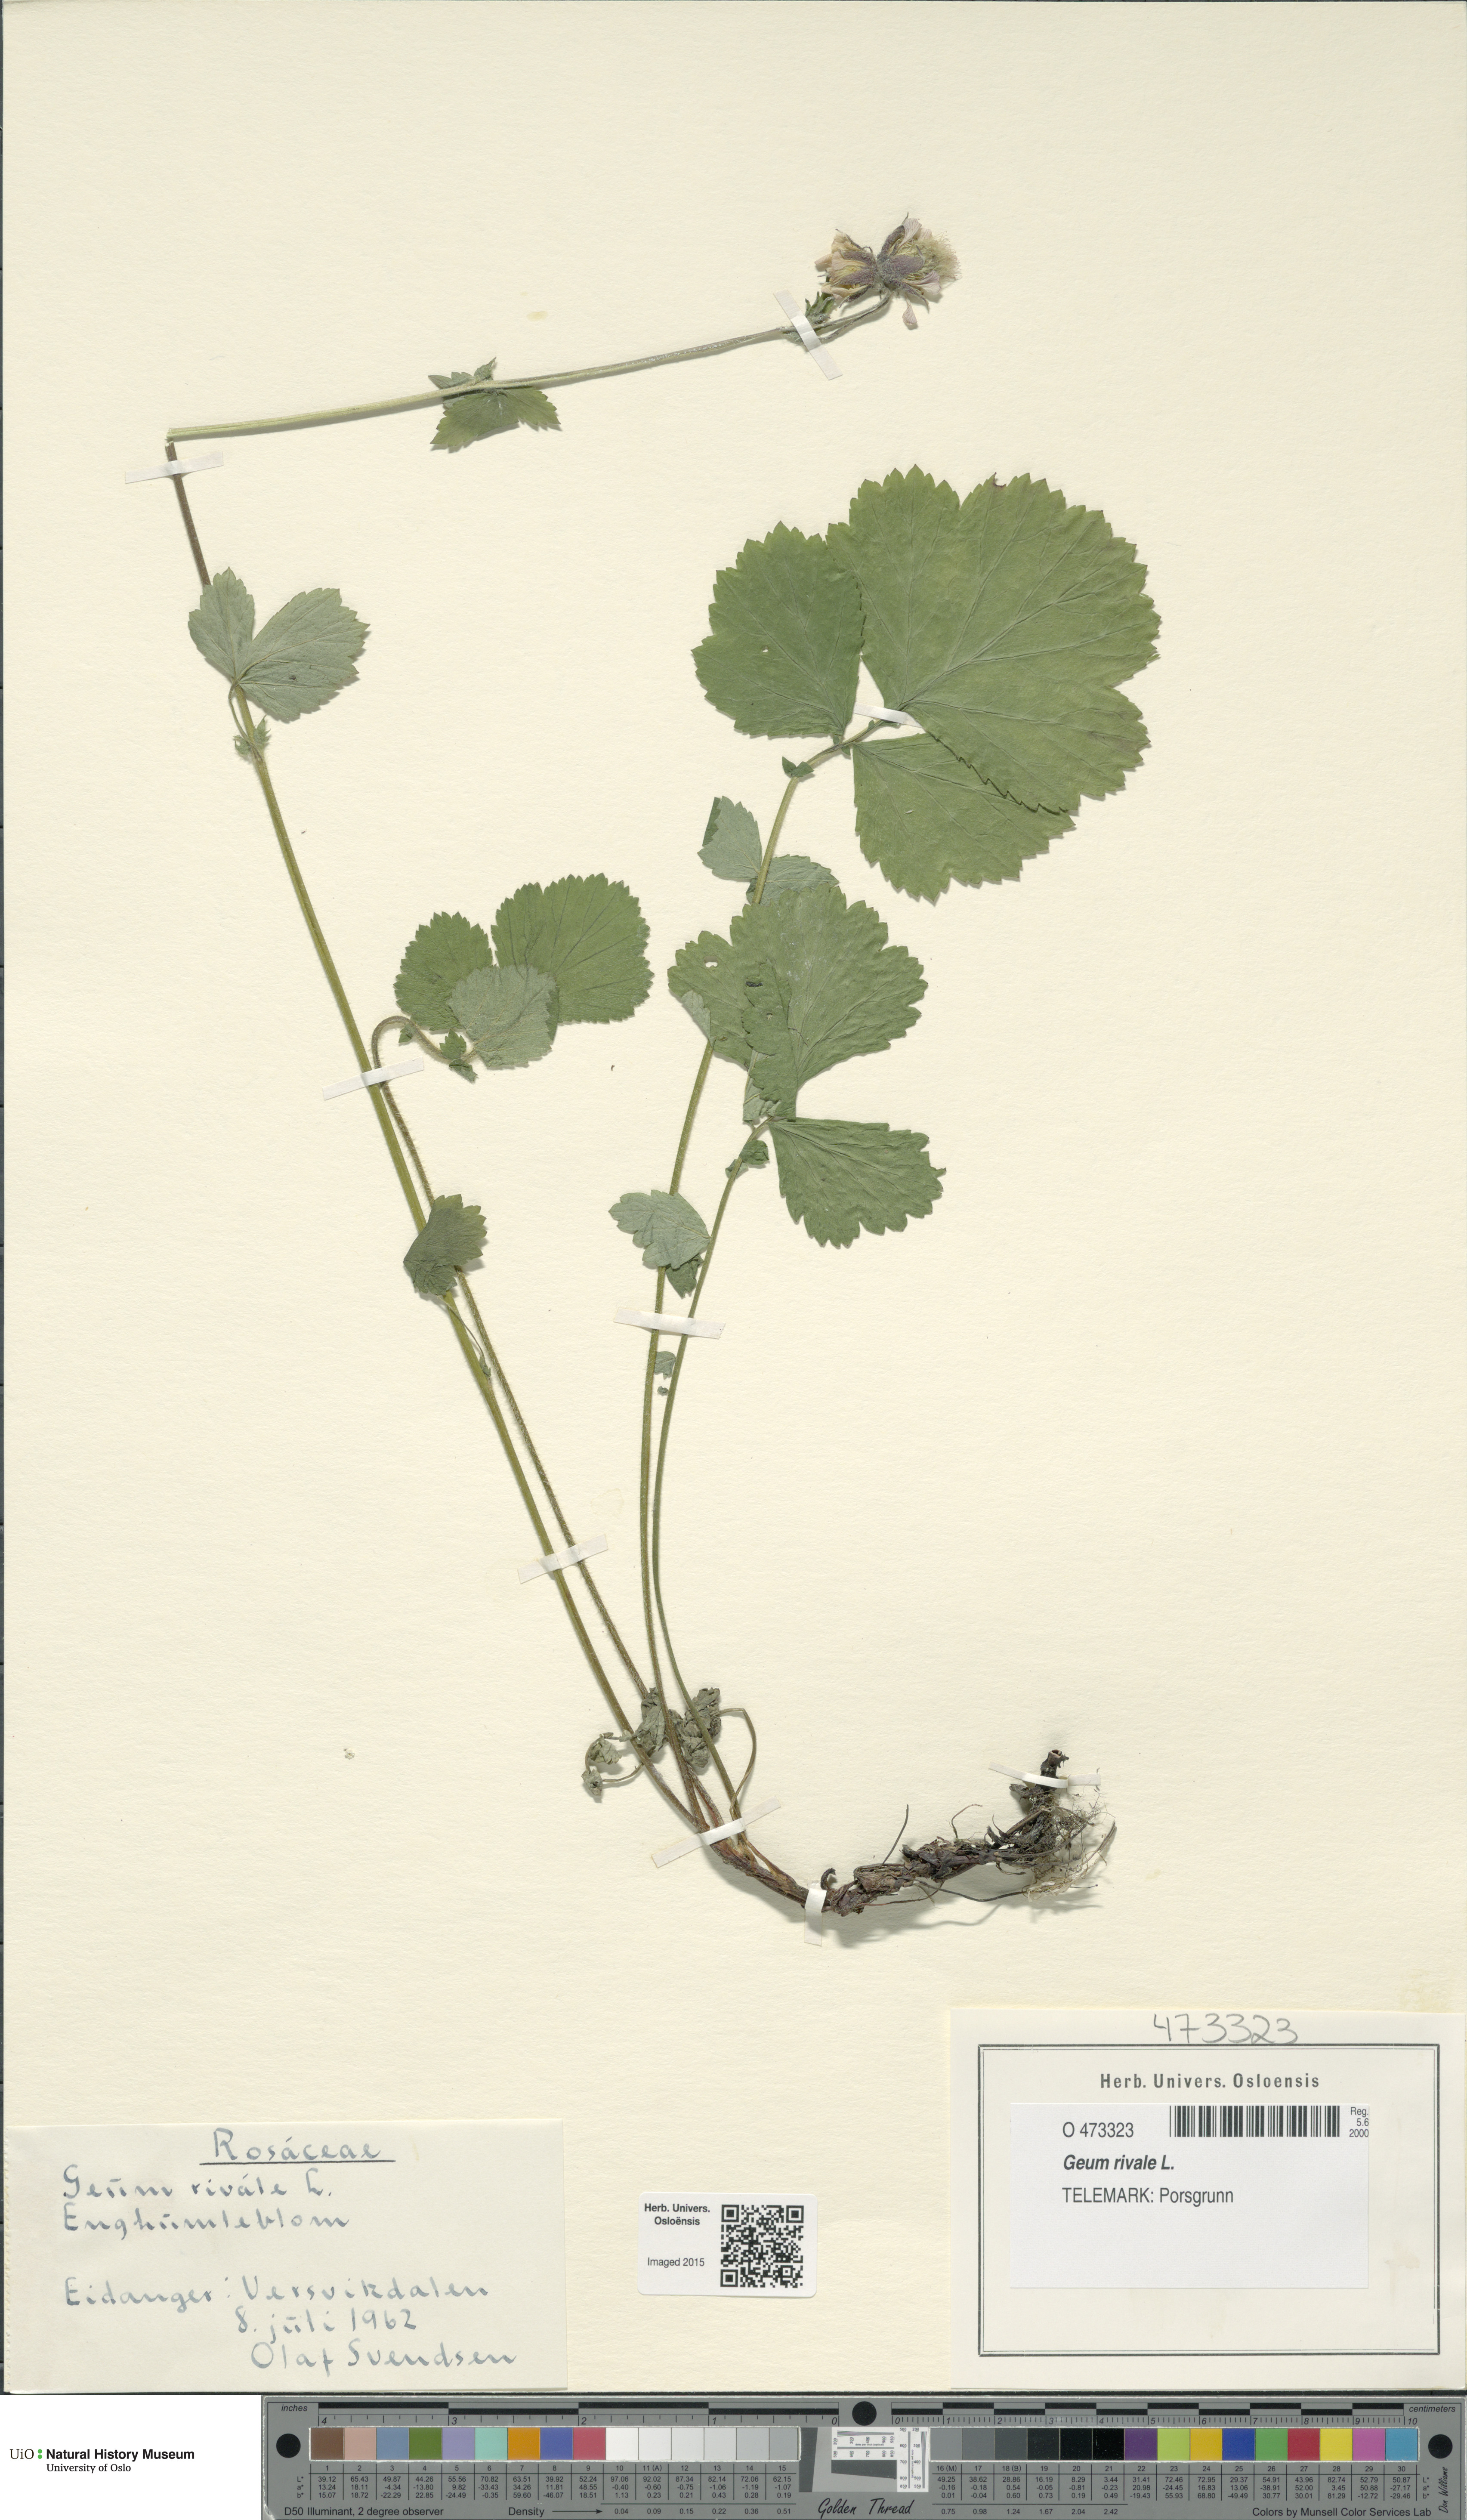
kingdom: Plantae
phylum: Tracheophyta
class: Magnoliopsida
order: Rosales
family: Rosaceae
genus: Geum
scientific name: Geum rivale
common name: Water avens
